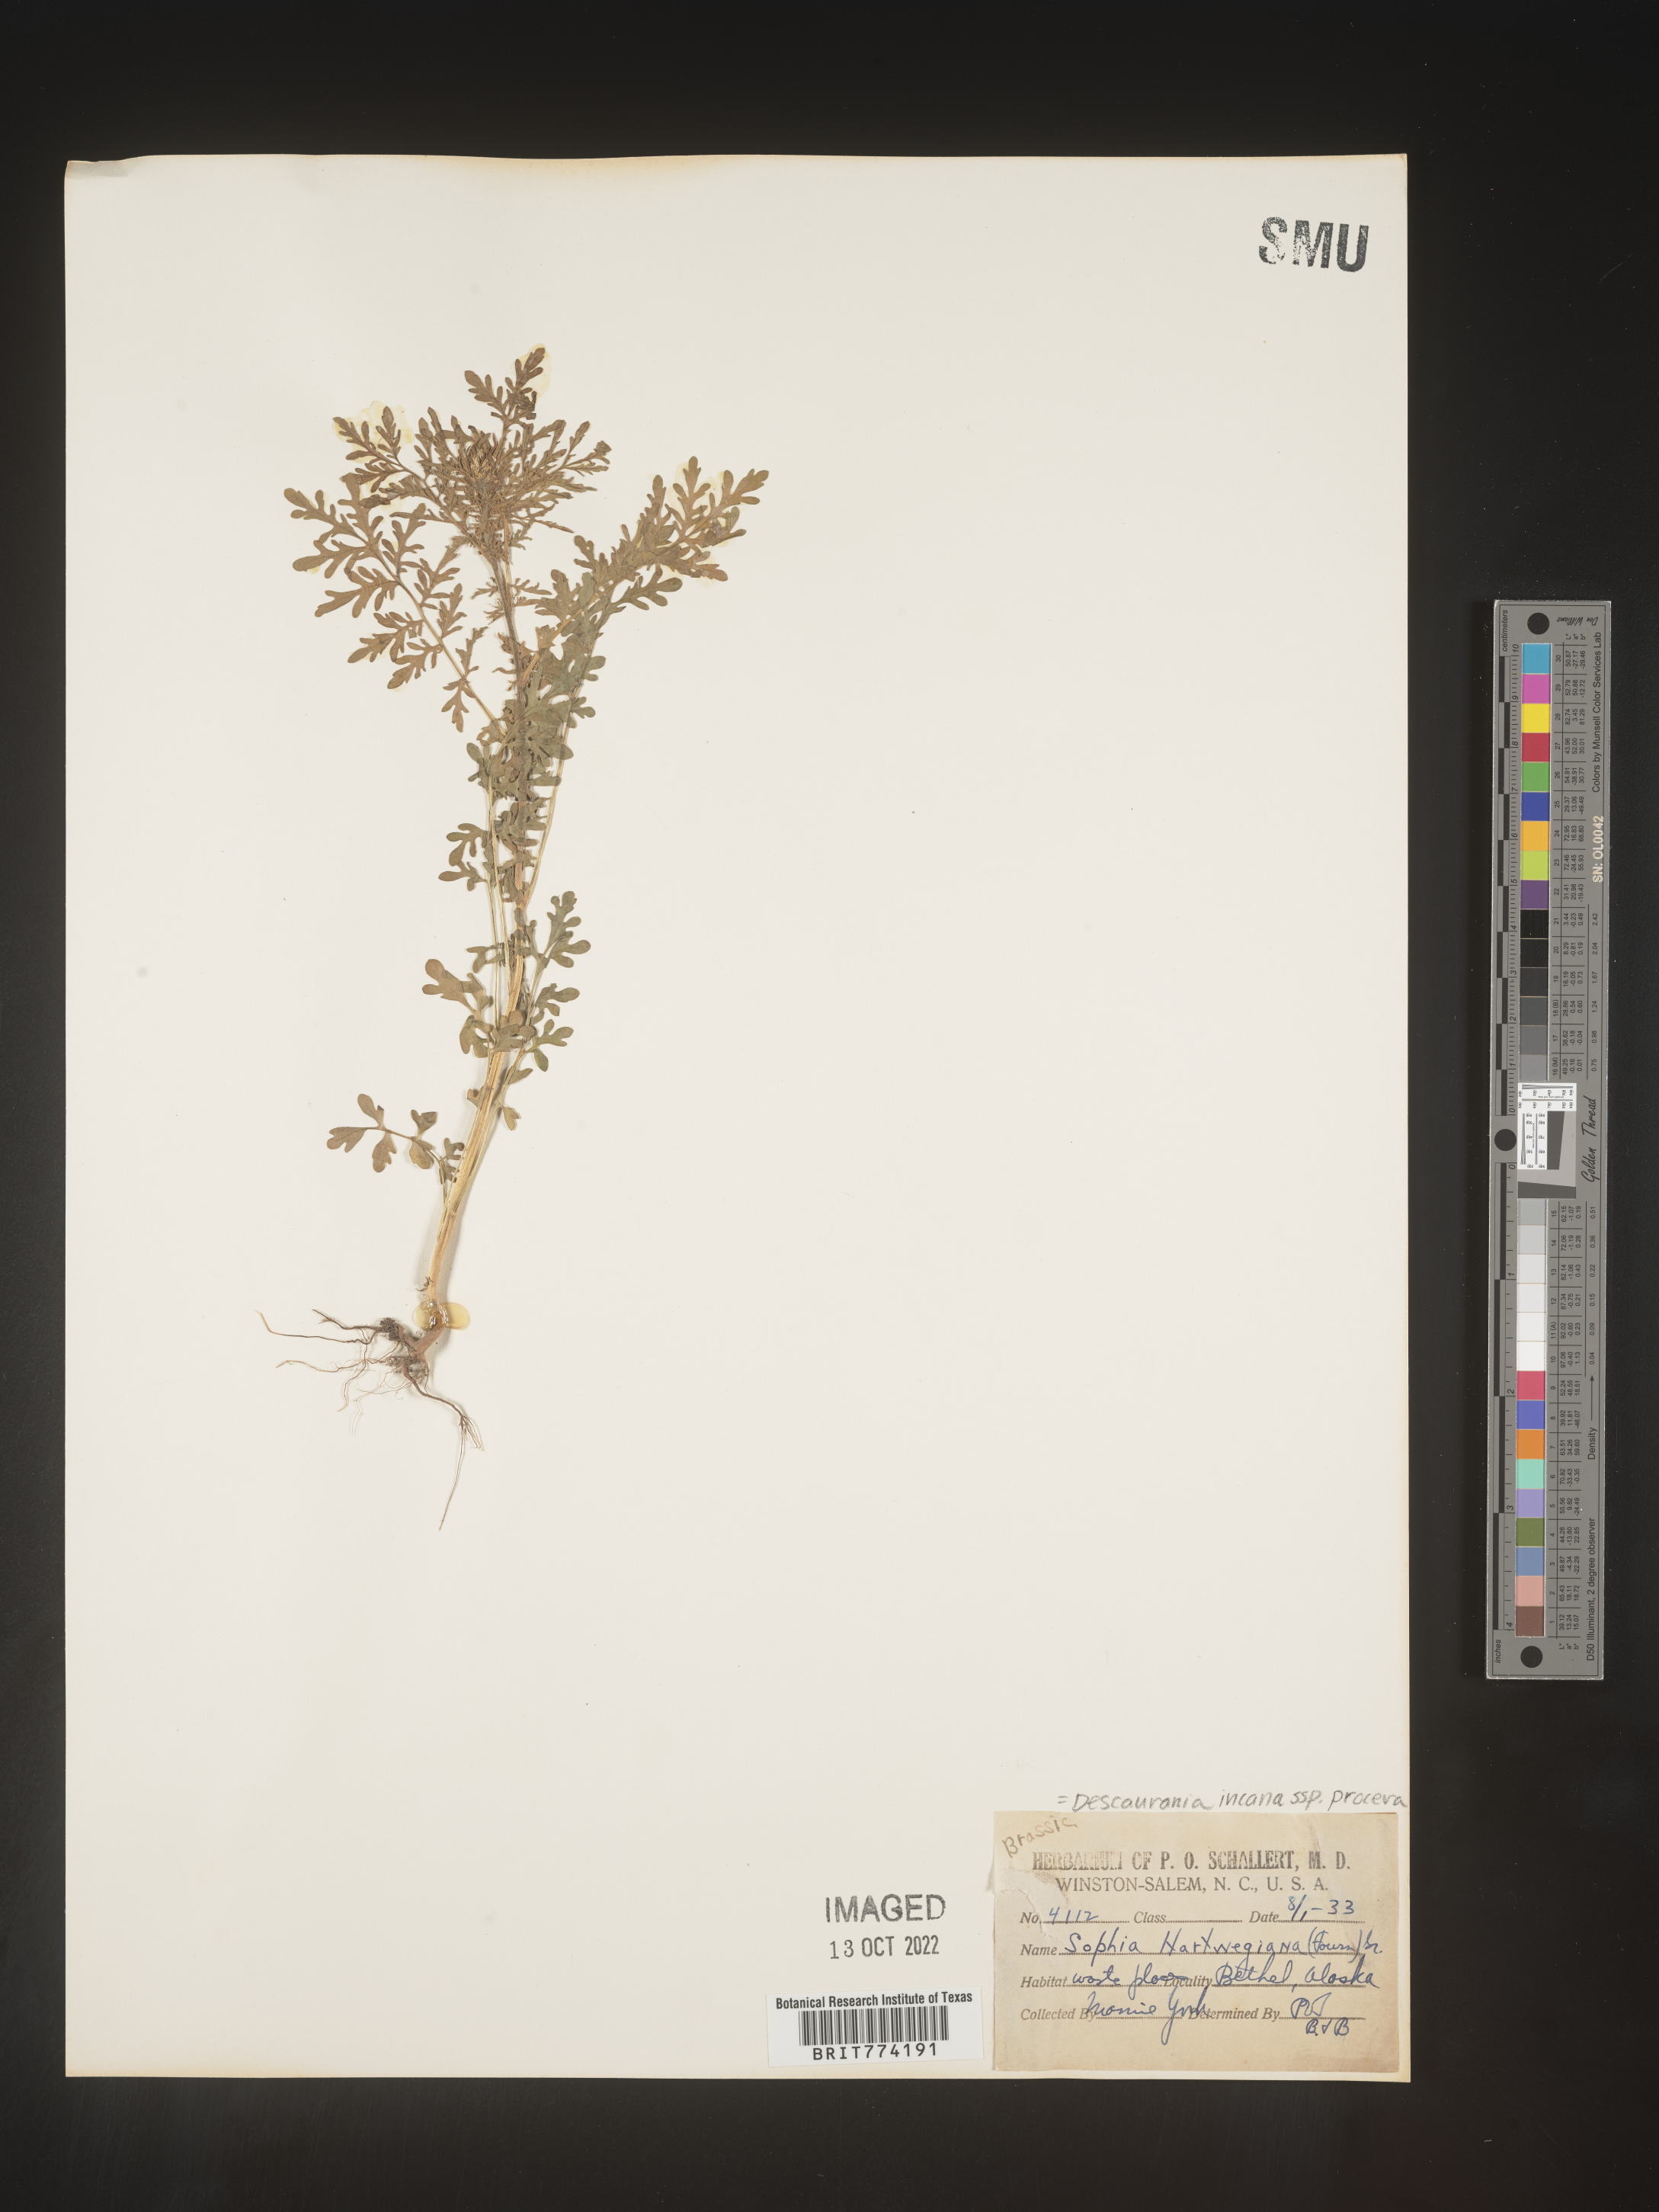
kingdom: Plantae
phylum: Tracheophyta
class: Magnoliopsida
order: Brassicales
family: Brassicaceae
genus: Descurainia
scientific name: Descurainia
